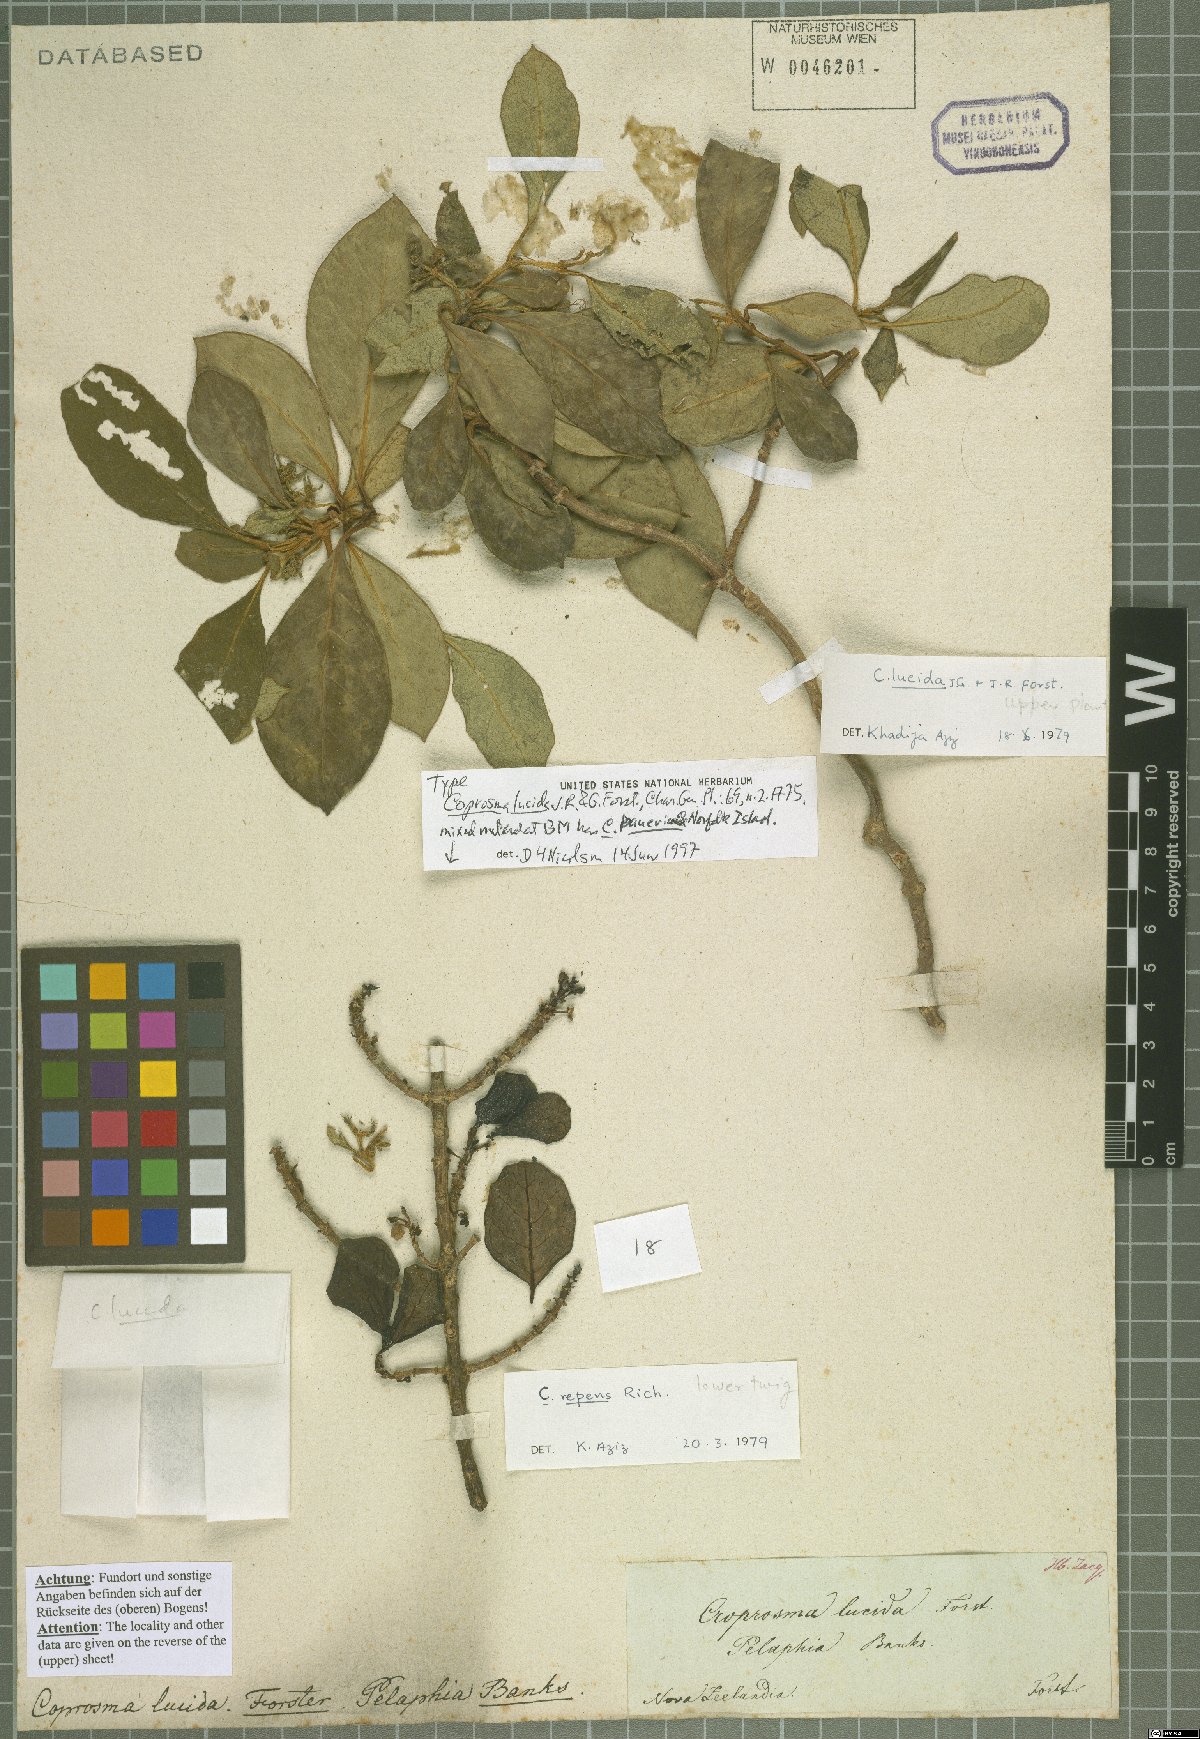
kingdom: Plantae
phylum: Tracheophyta
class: Magnoliopsida
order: Gentianales
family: Rubiaceae
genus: Coprosma
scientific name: Coprosma lucida
